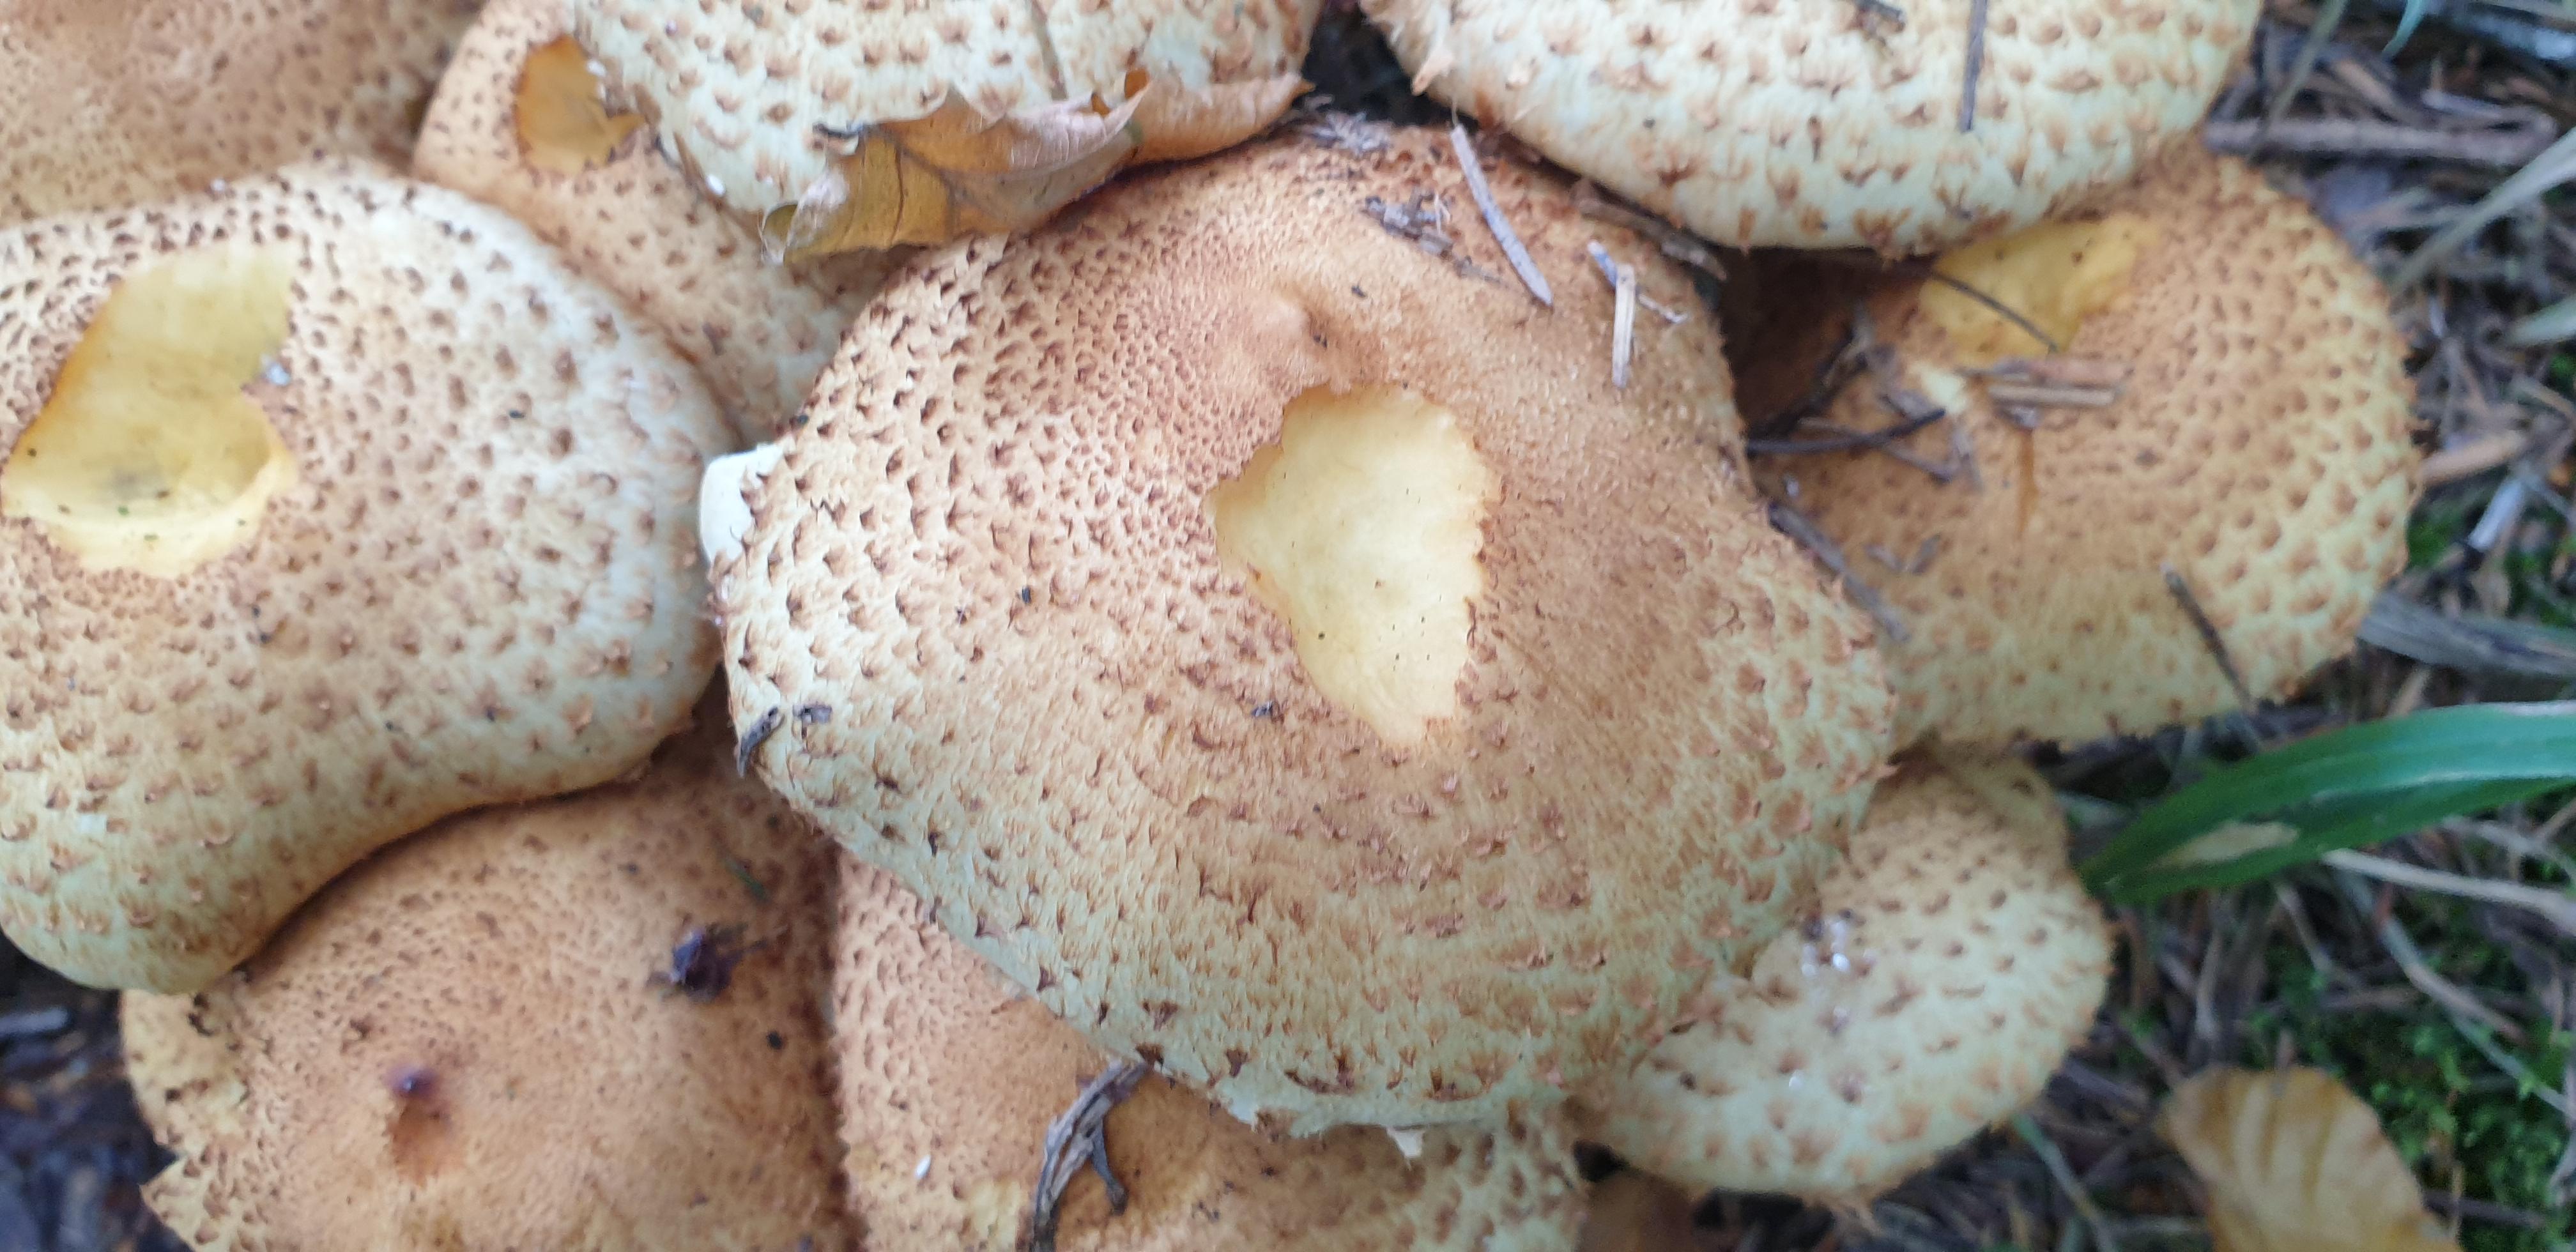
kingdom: Fungi
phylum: Basidiomycota
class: Agaricomycetes
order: Agaricales
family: Strophariaceae
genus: Pholiota
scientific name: Pholiota squarrosa
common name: krumskællet skælhat
